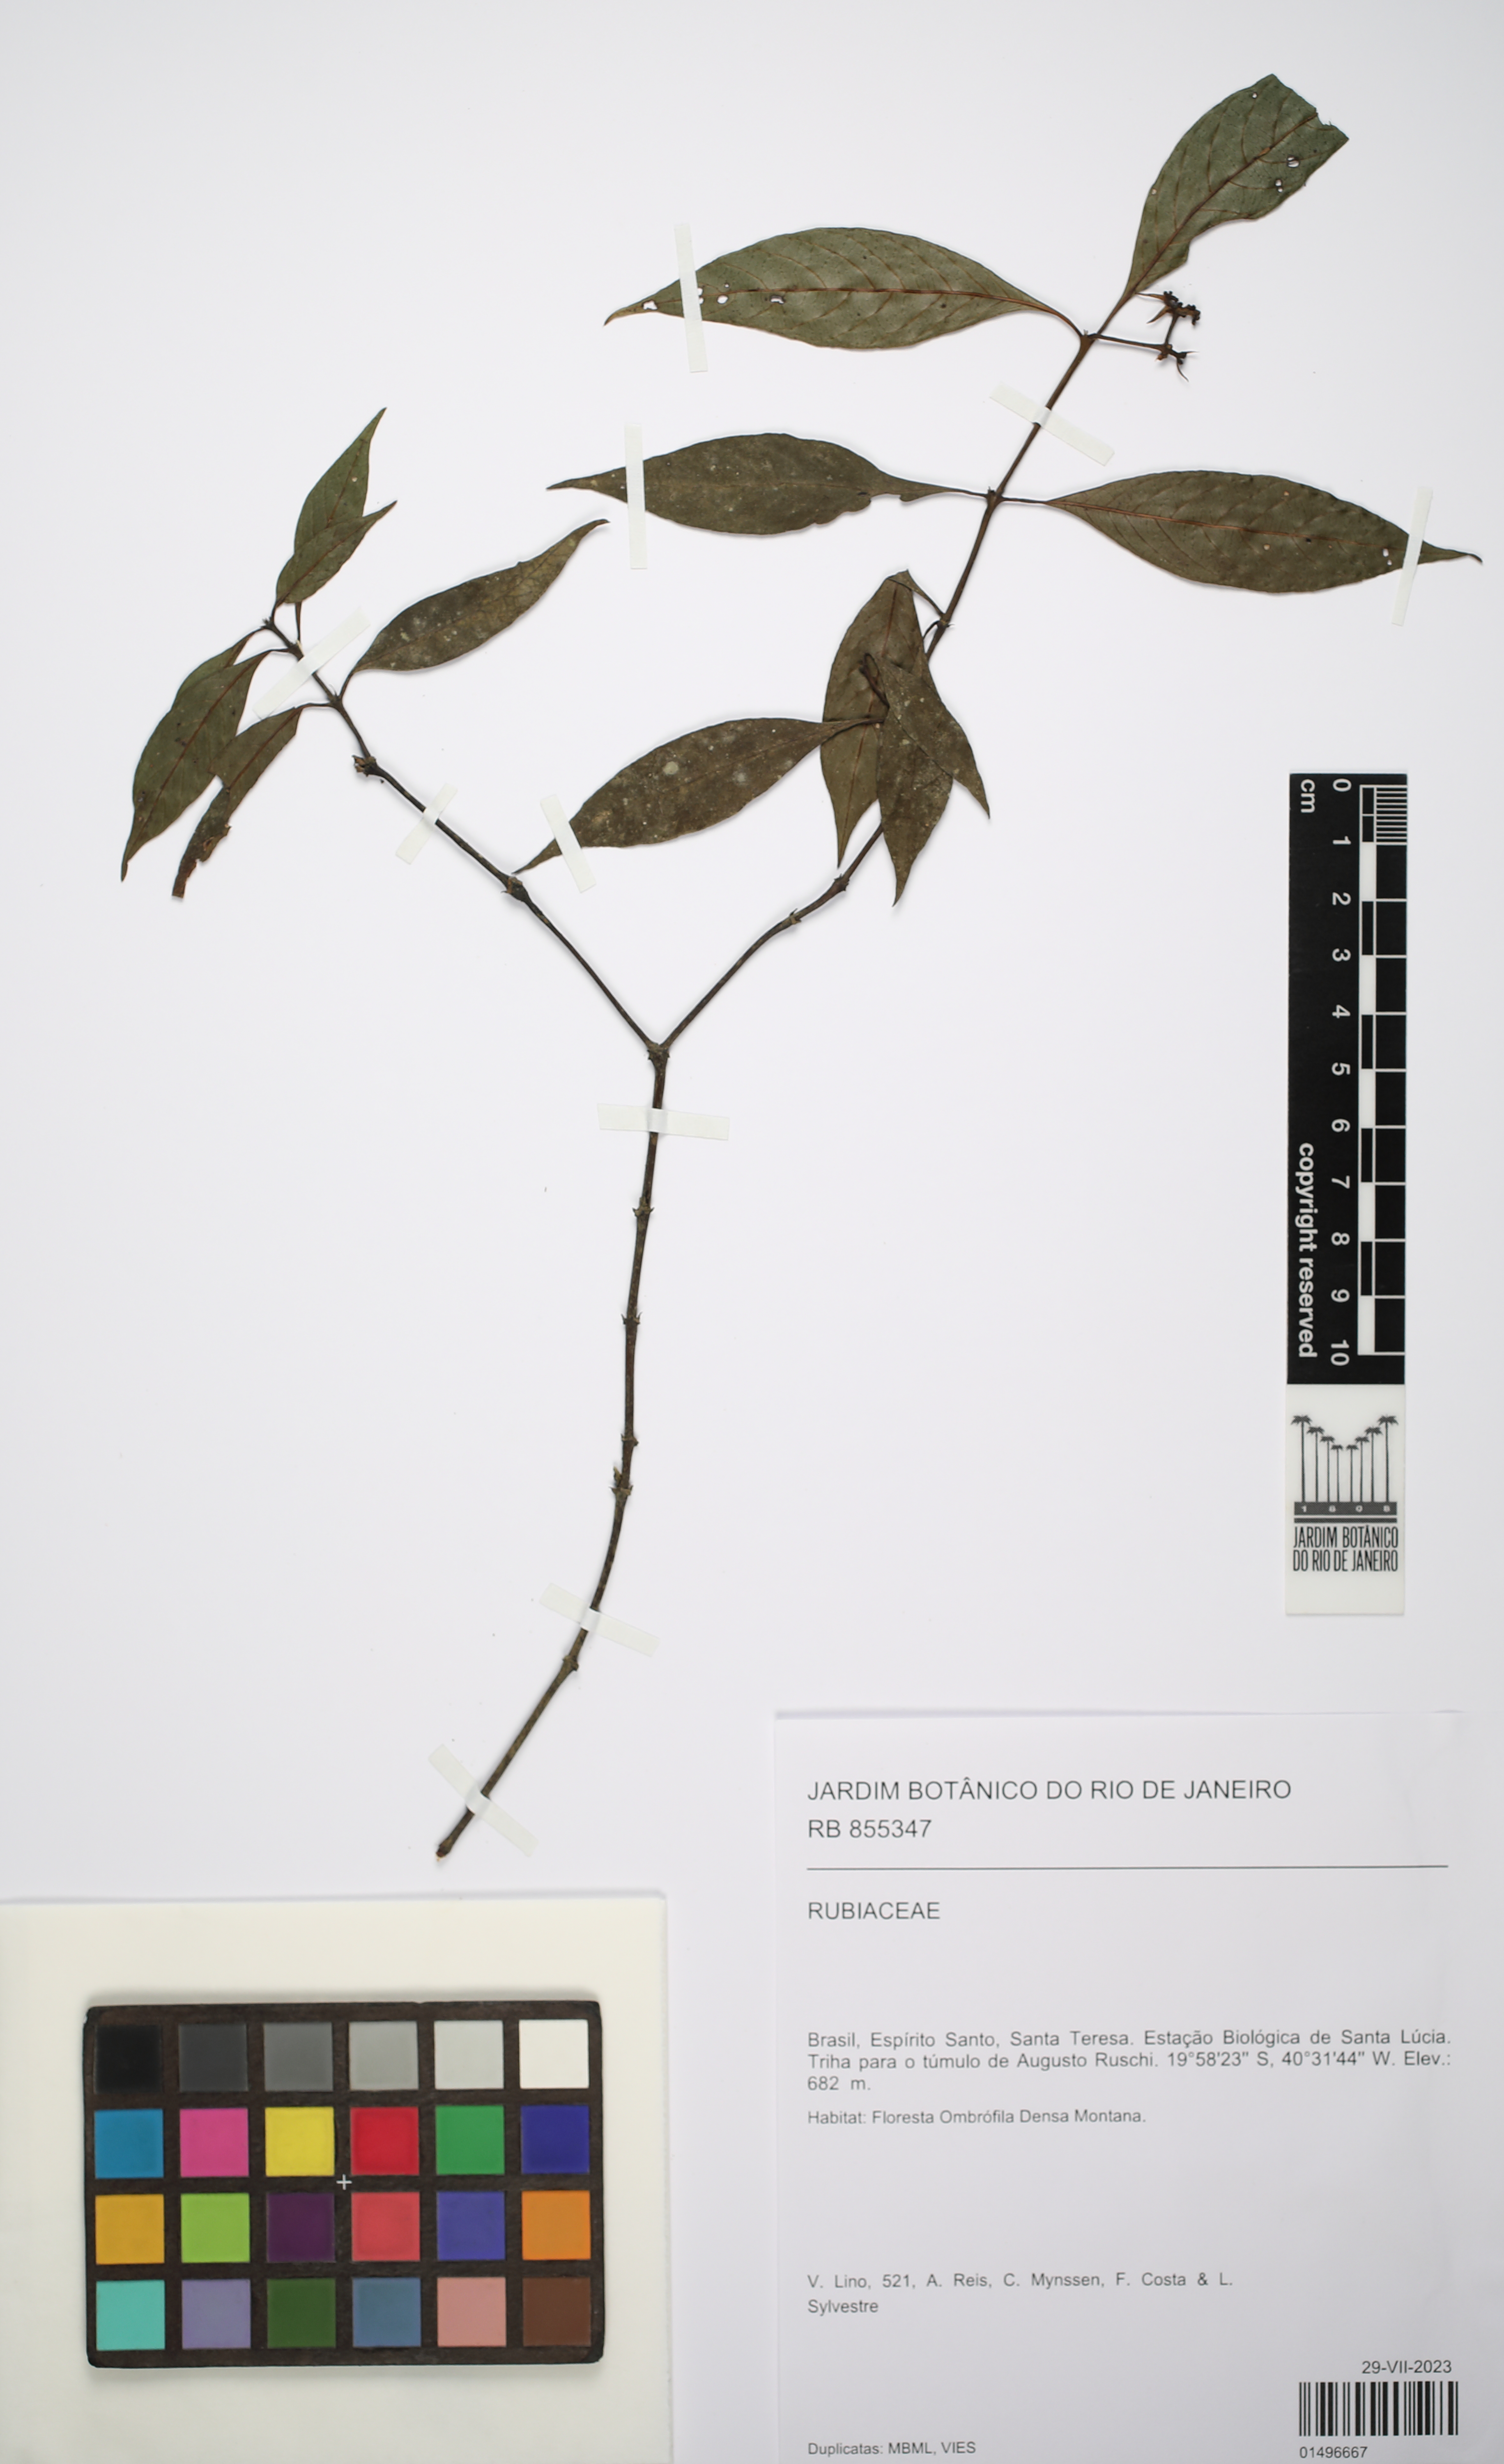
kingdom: Plantae
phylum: Tracheophyta
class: Magnoliopsida
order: Gentianales
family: Rubiaceae
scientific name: Rubiaceae
